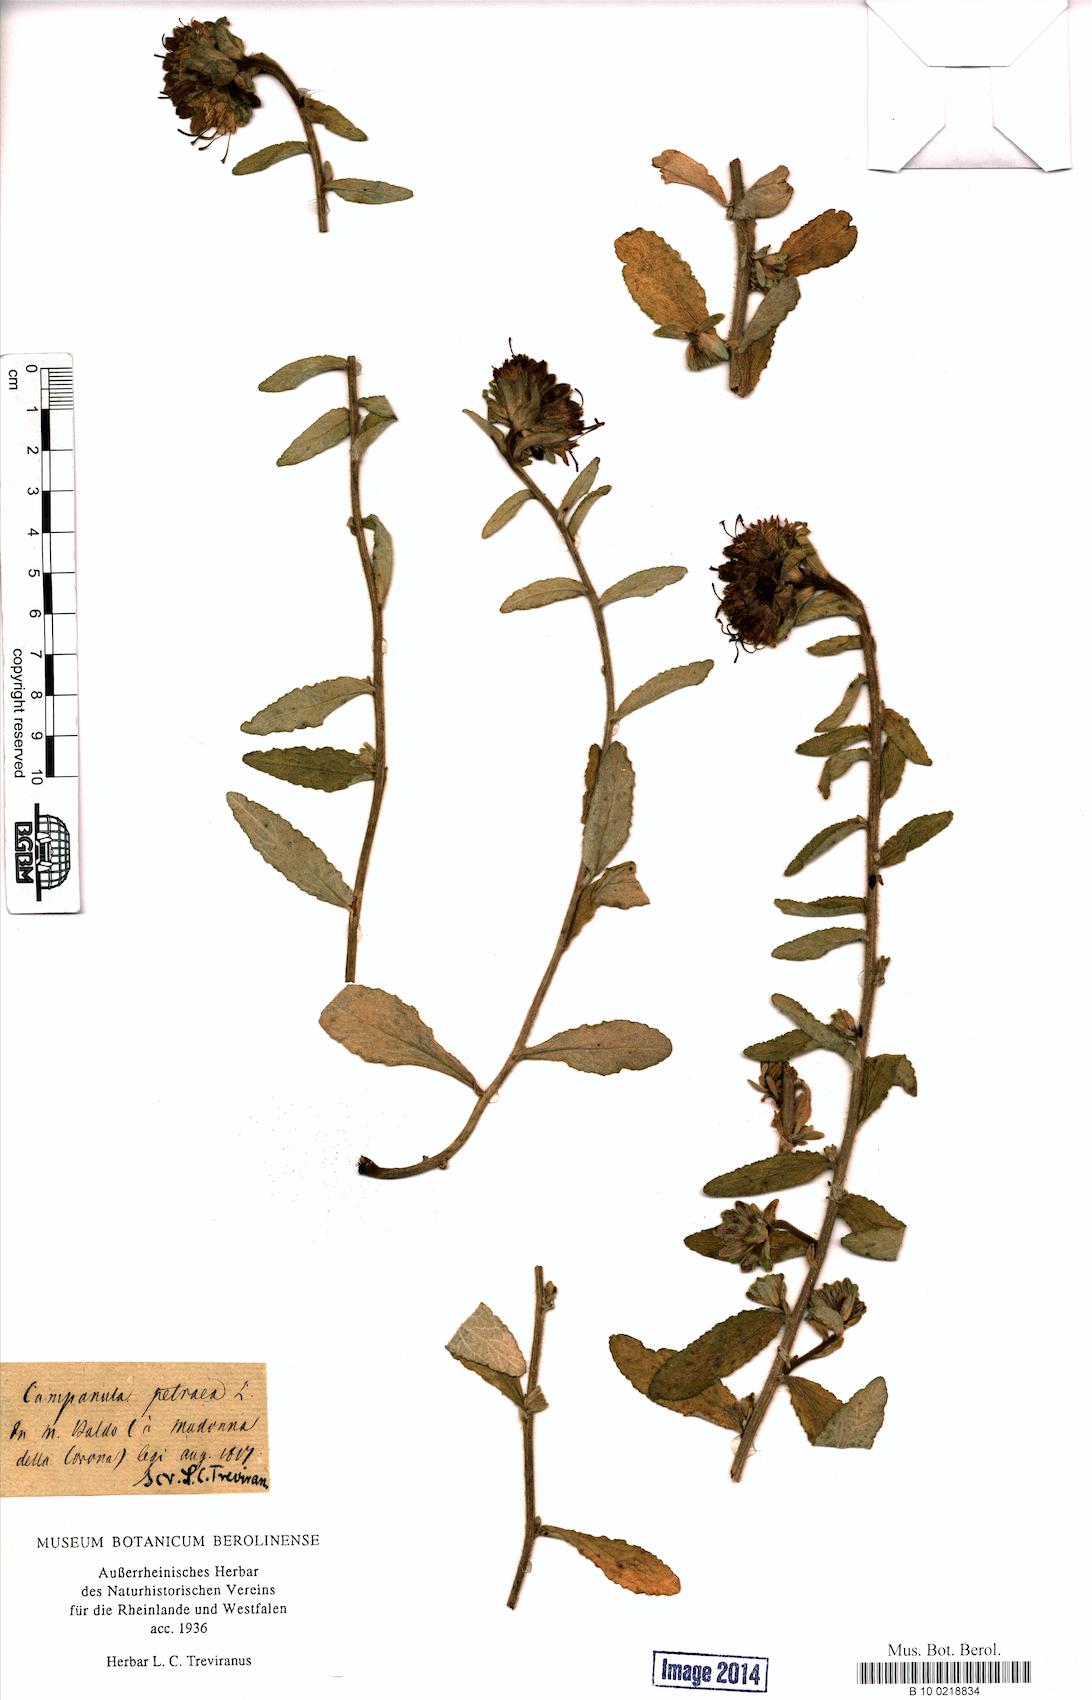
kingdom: Plantae
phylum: Tracheophyta
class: Magnoliopsida
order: Asterales
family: Campanulaceae
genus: Campanula
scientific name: Campanula petraea
